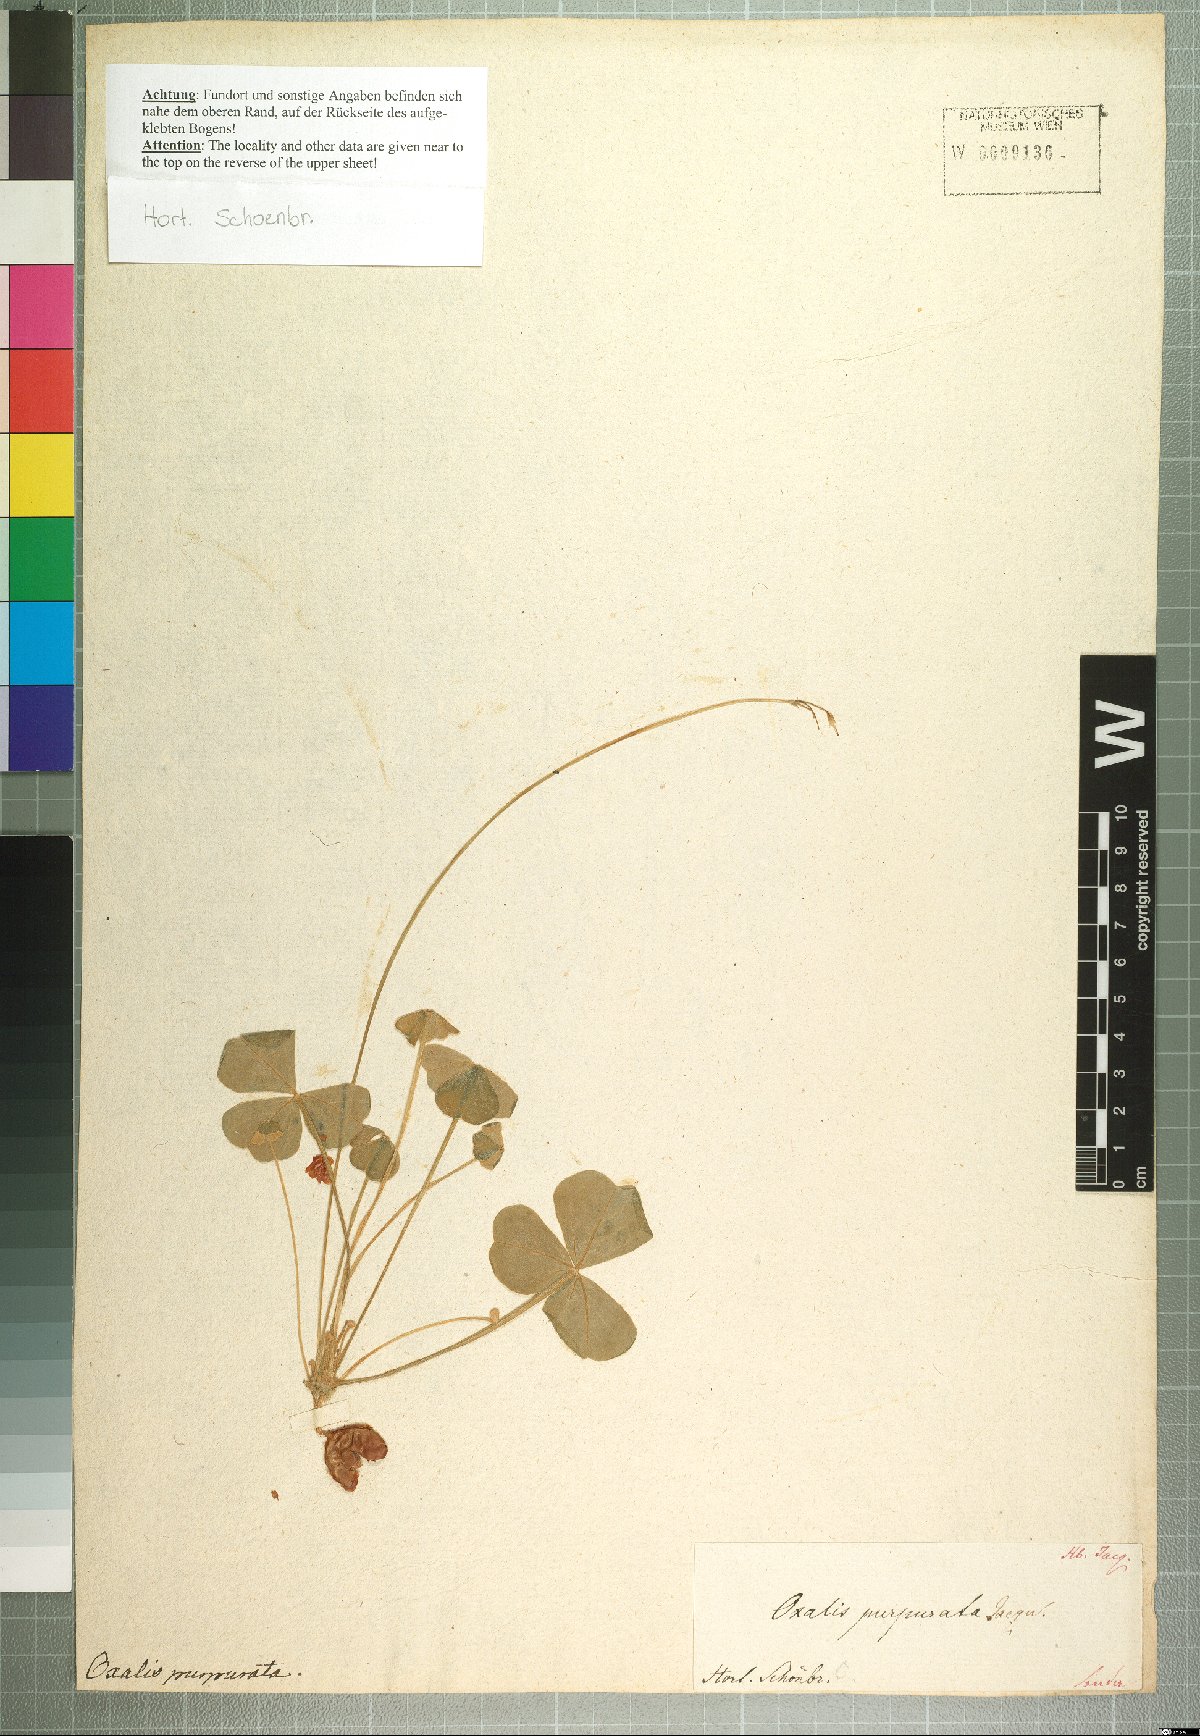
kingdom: Plantae
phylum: Tracheophyta
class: Magnoliopsida
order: Oxalidales
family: Oxalidaceae
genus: Oxalis
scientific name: Oxalis purpurata
